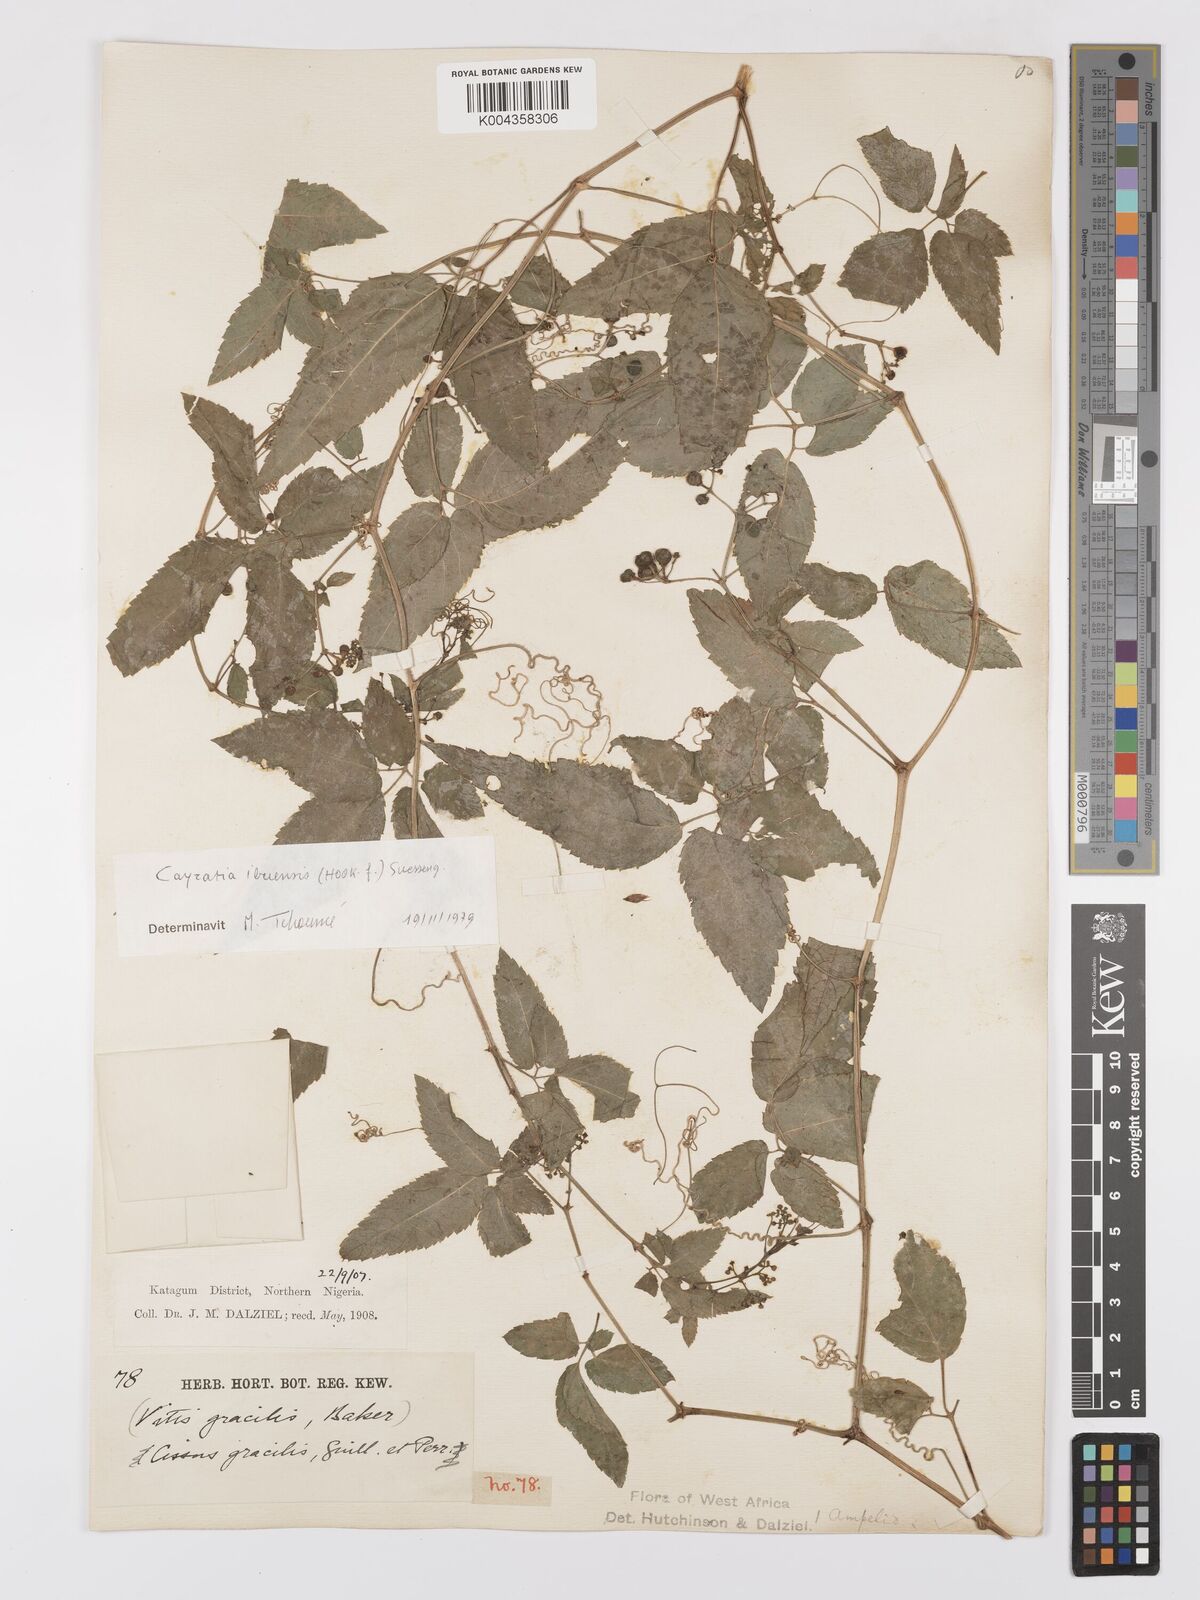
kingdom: Plantae
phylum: Tracheophyta
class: Magnoliopsida
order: Vitales
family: Vitaceae
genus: Afrocayratia
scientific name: Afrocayratia gracilis
